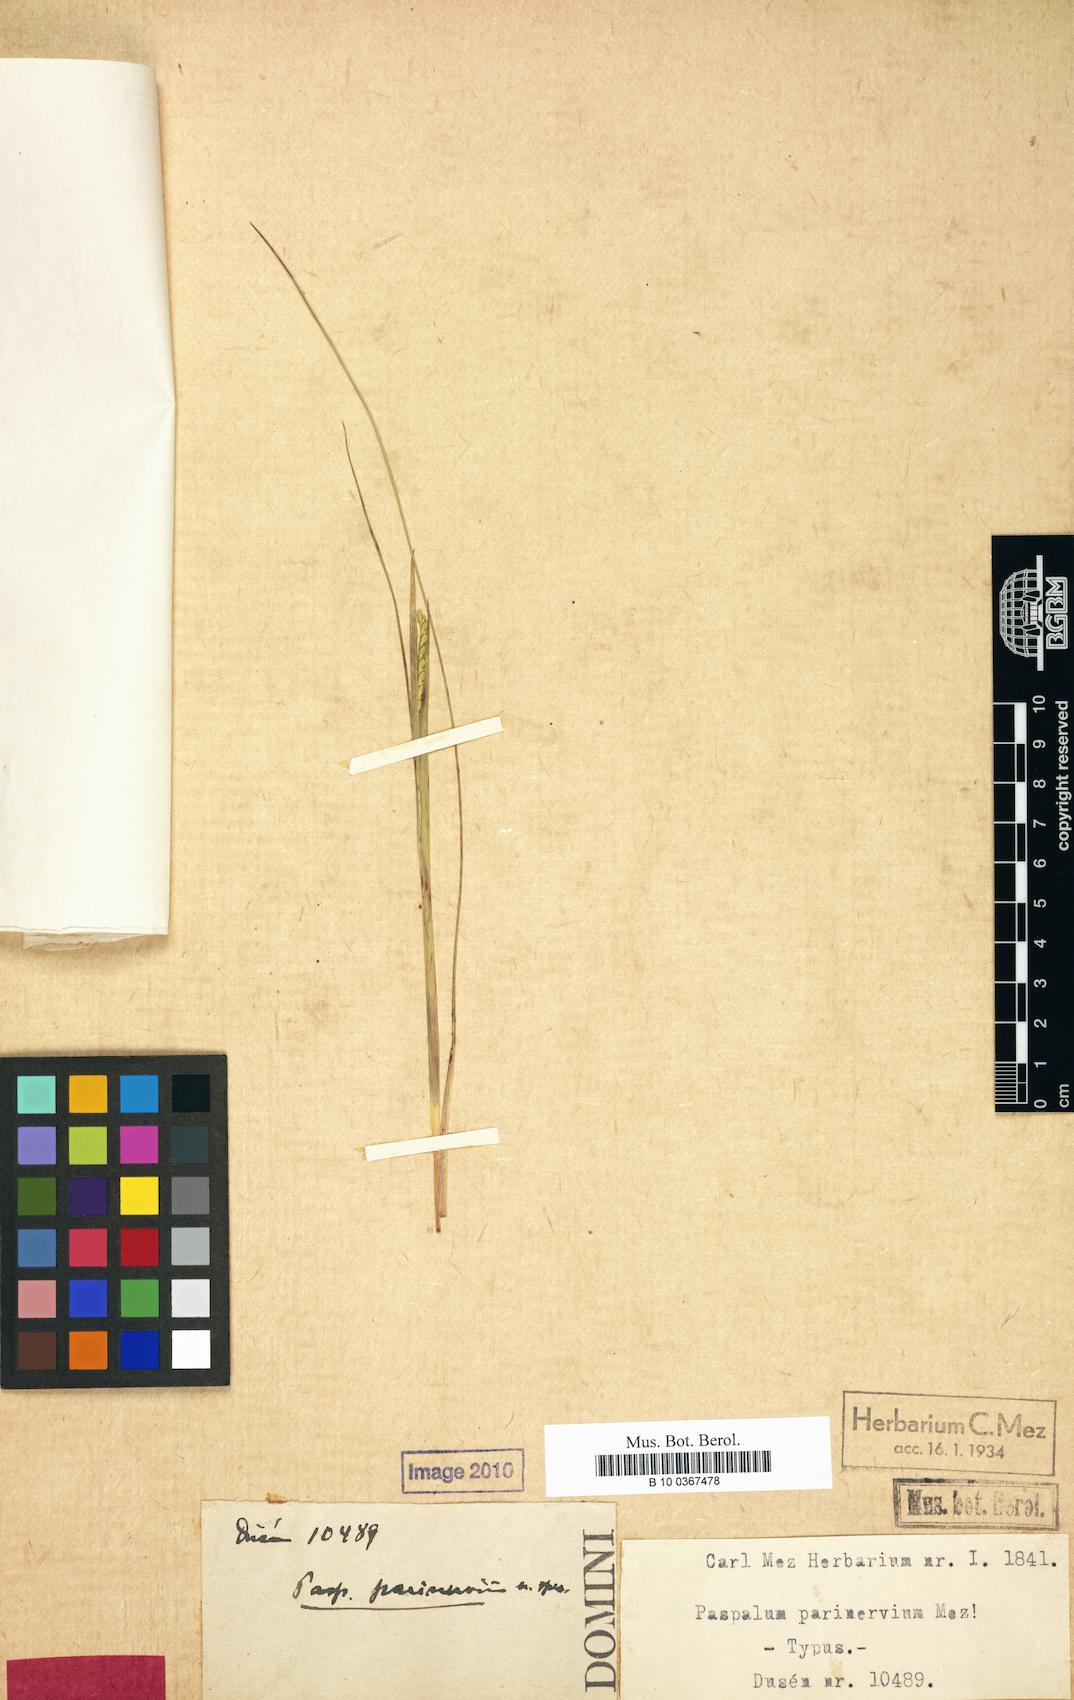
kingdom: Plantae
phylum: Tracheophyta
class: Liliopsida
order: Poales
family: Poaceae
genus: Paspalum
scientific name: Paspalum approximatum
